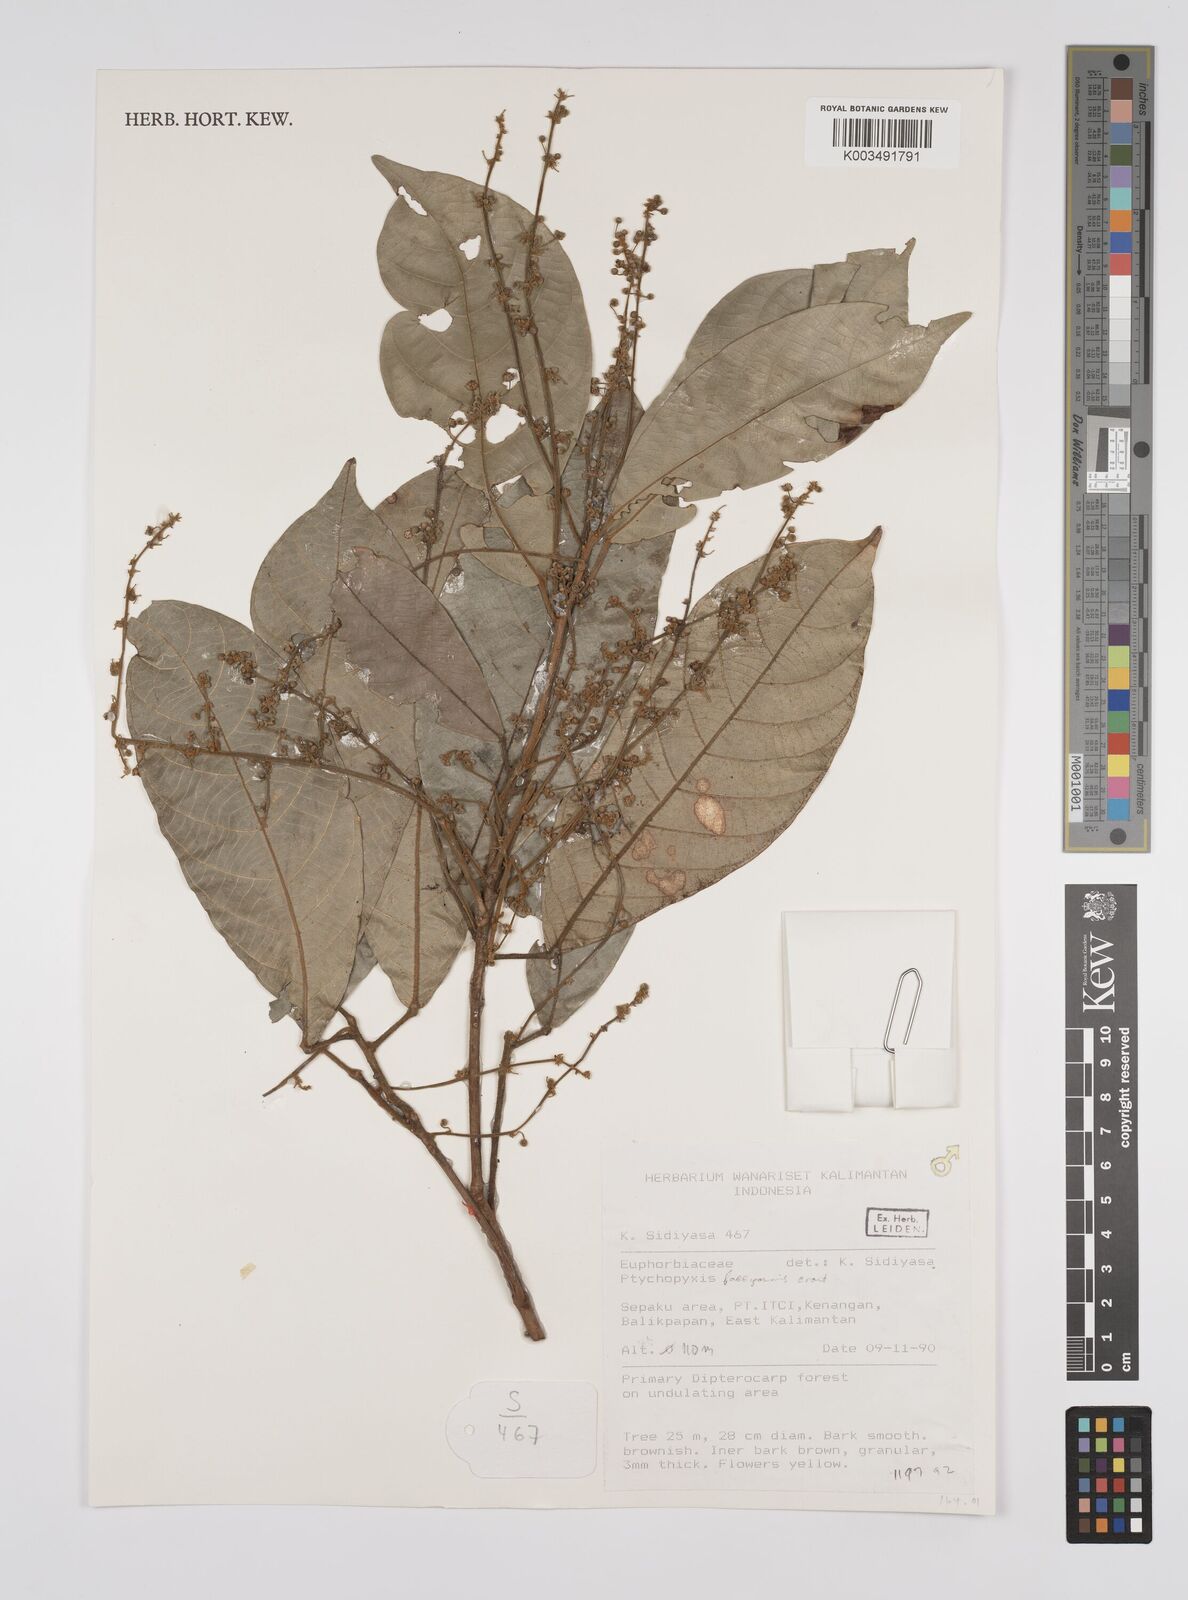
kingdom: Plantae
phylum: Tracheophyta
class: Magnoliopsida
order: Malpighiales
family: Euphorbiaceae
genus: Ptychopyxis
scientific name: Ptychopyxis bacciformis
